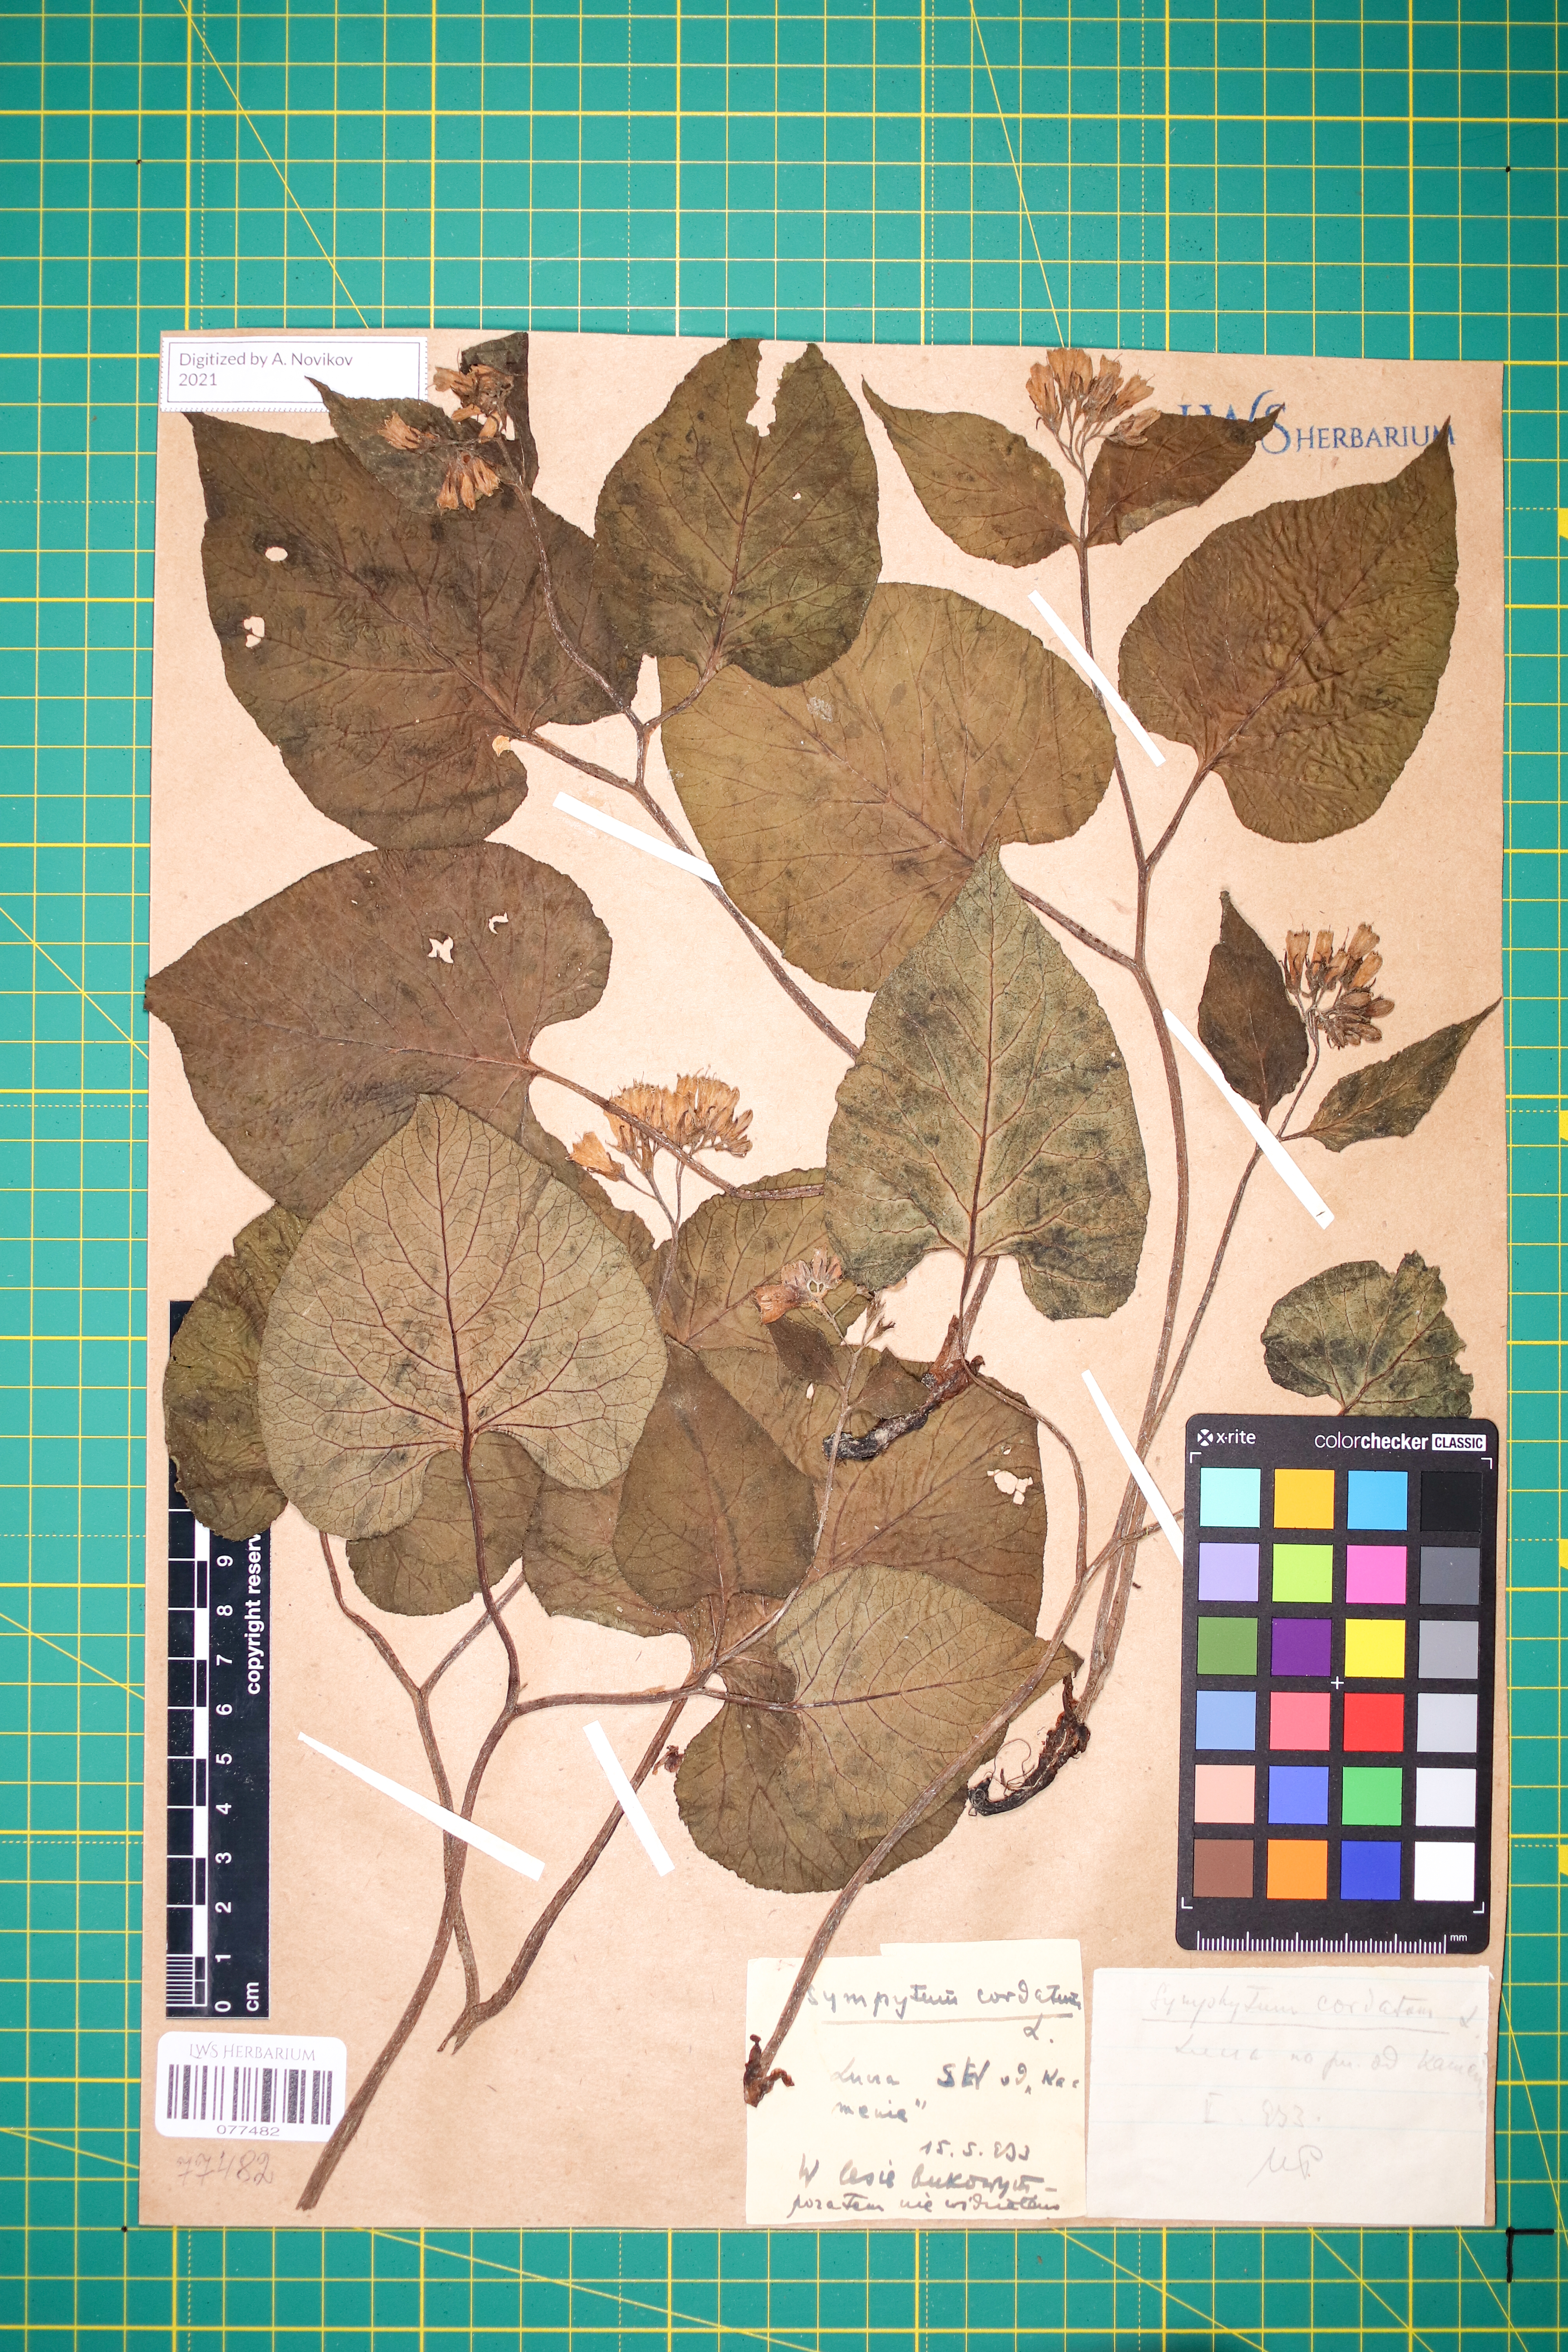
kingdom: Plantae
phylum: Tracheophyta
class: Magnoliopsida
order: Boraginales
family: Boraginaceae
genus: Symphytum
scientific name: Symphytum cordatum
